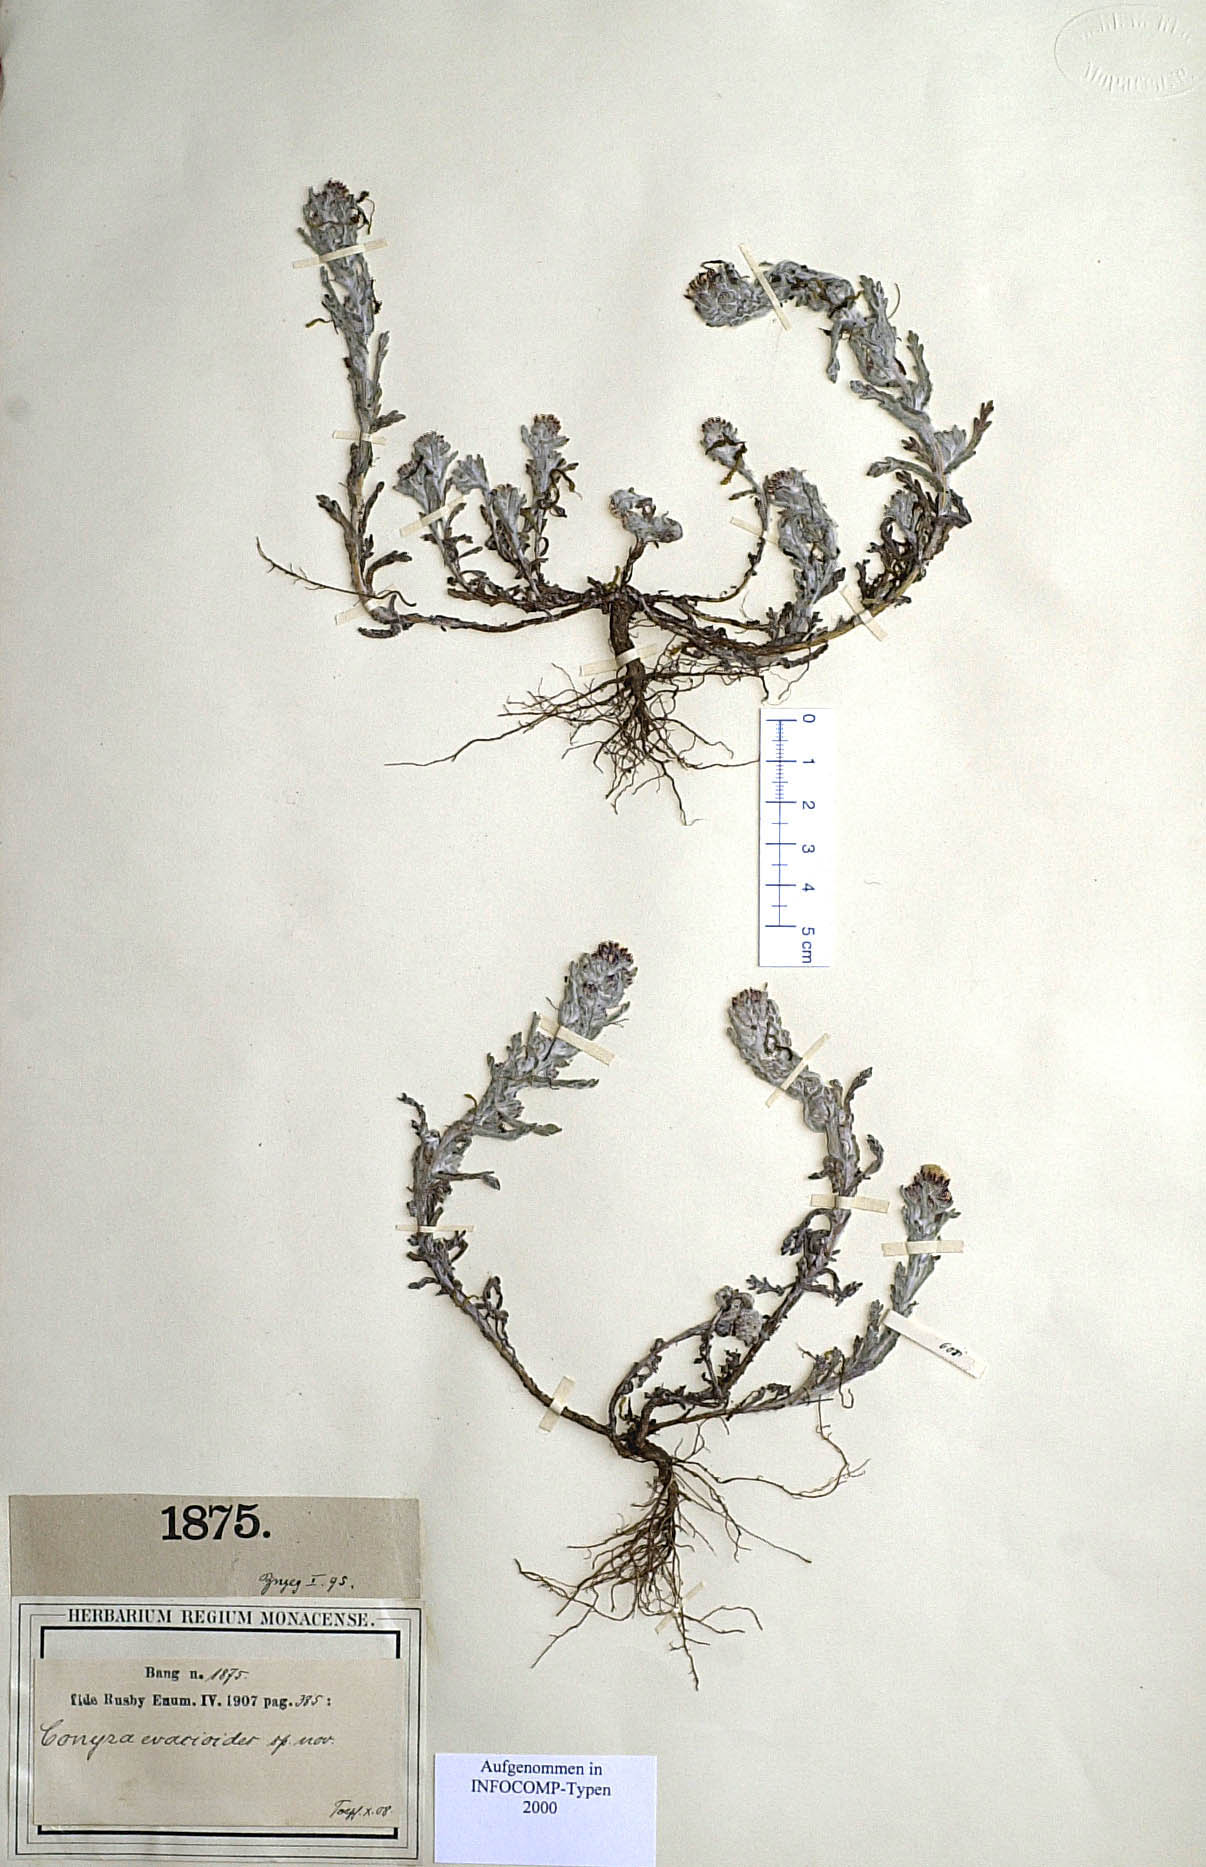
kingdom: Plantae
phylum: Tracheophyta
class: Magnoliopsida
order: Asterales
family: Asteraceae
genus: Laennecia
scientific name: Laennecia gnaphalioides
